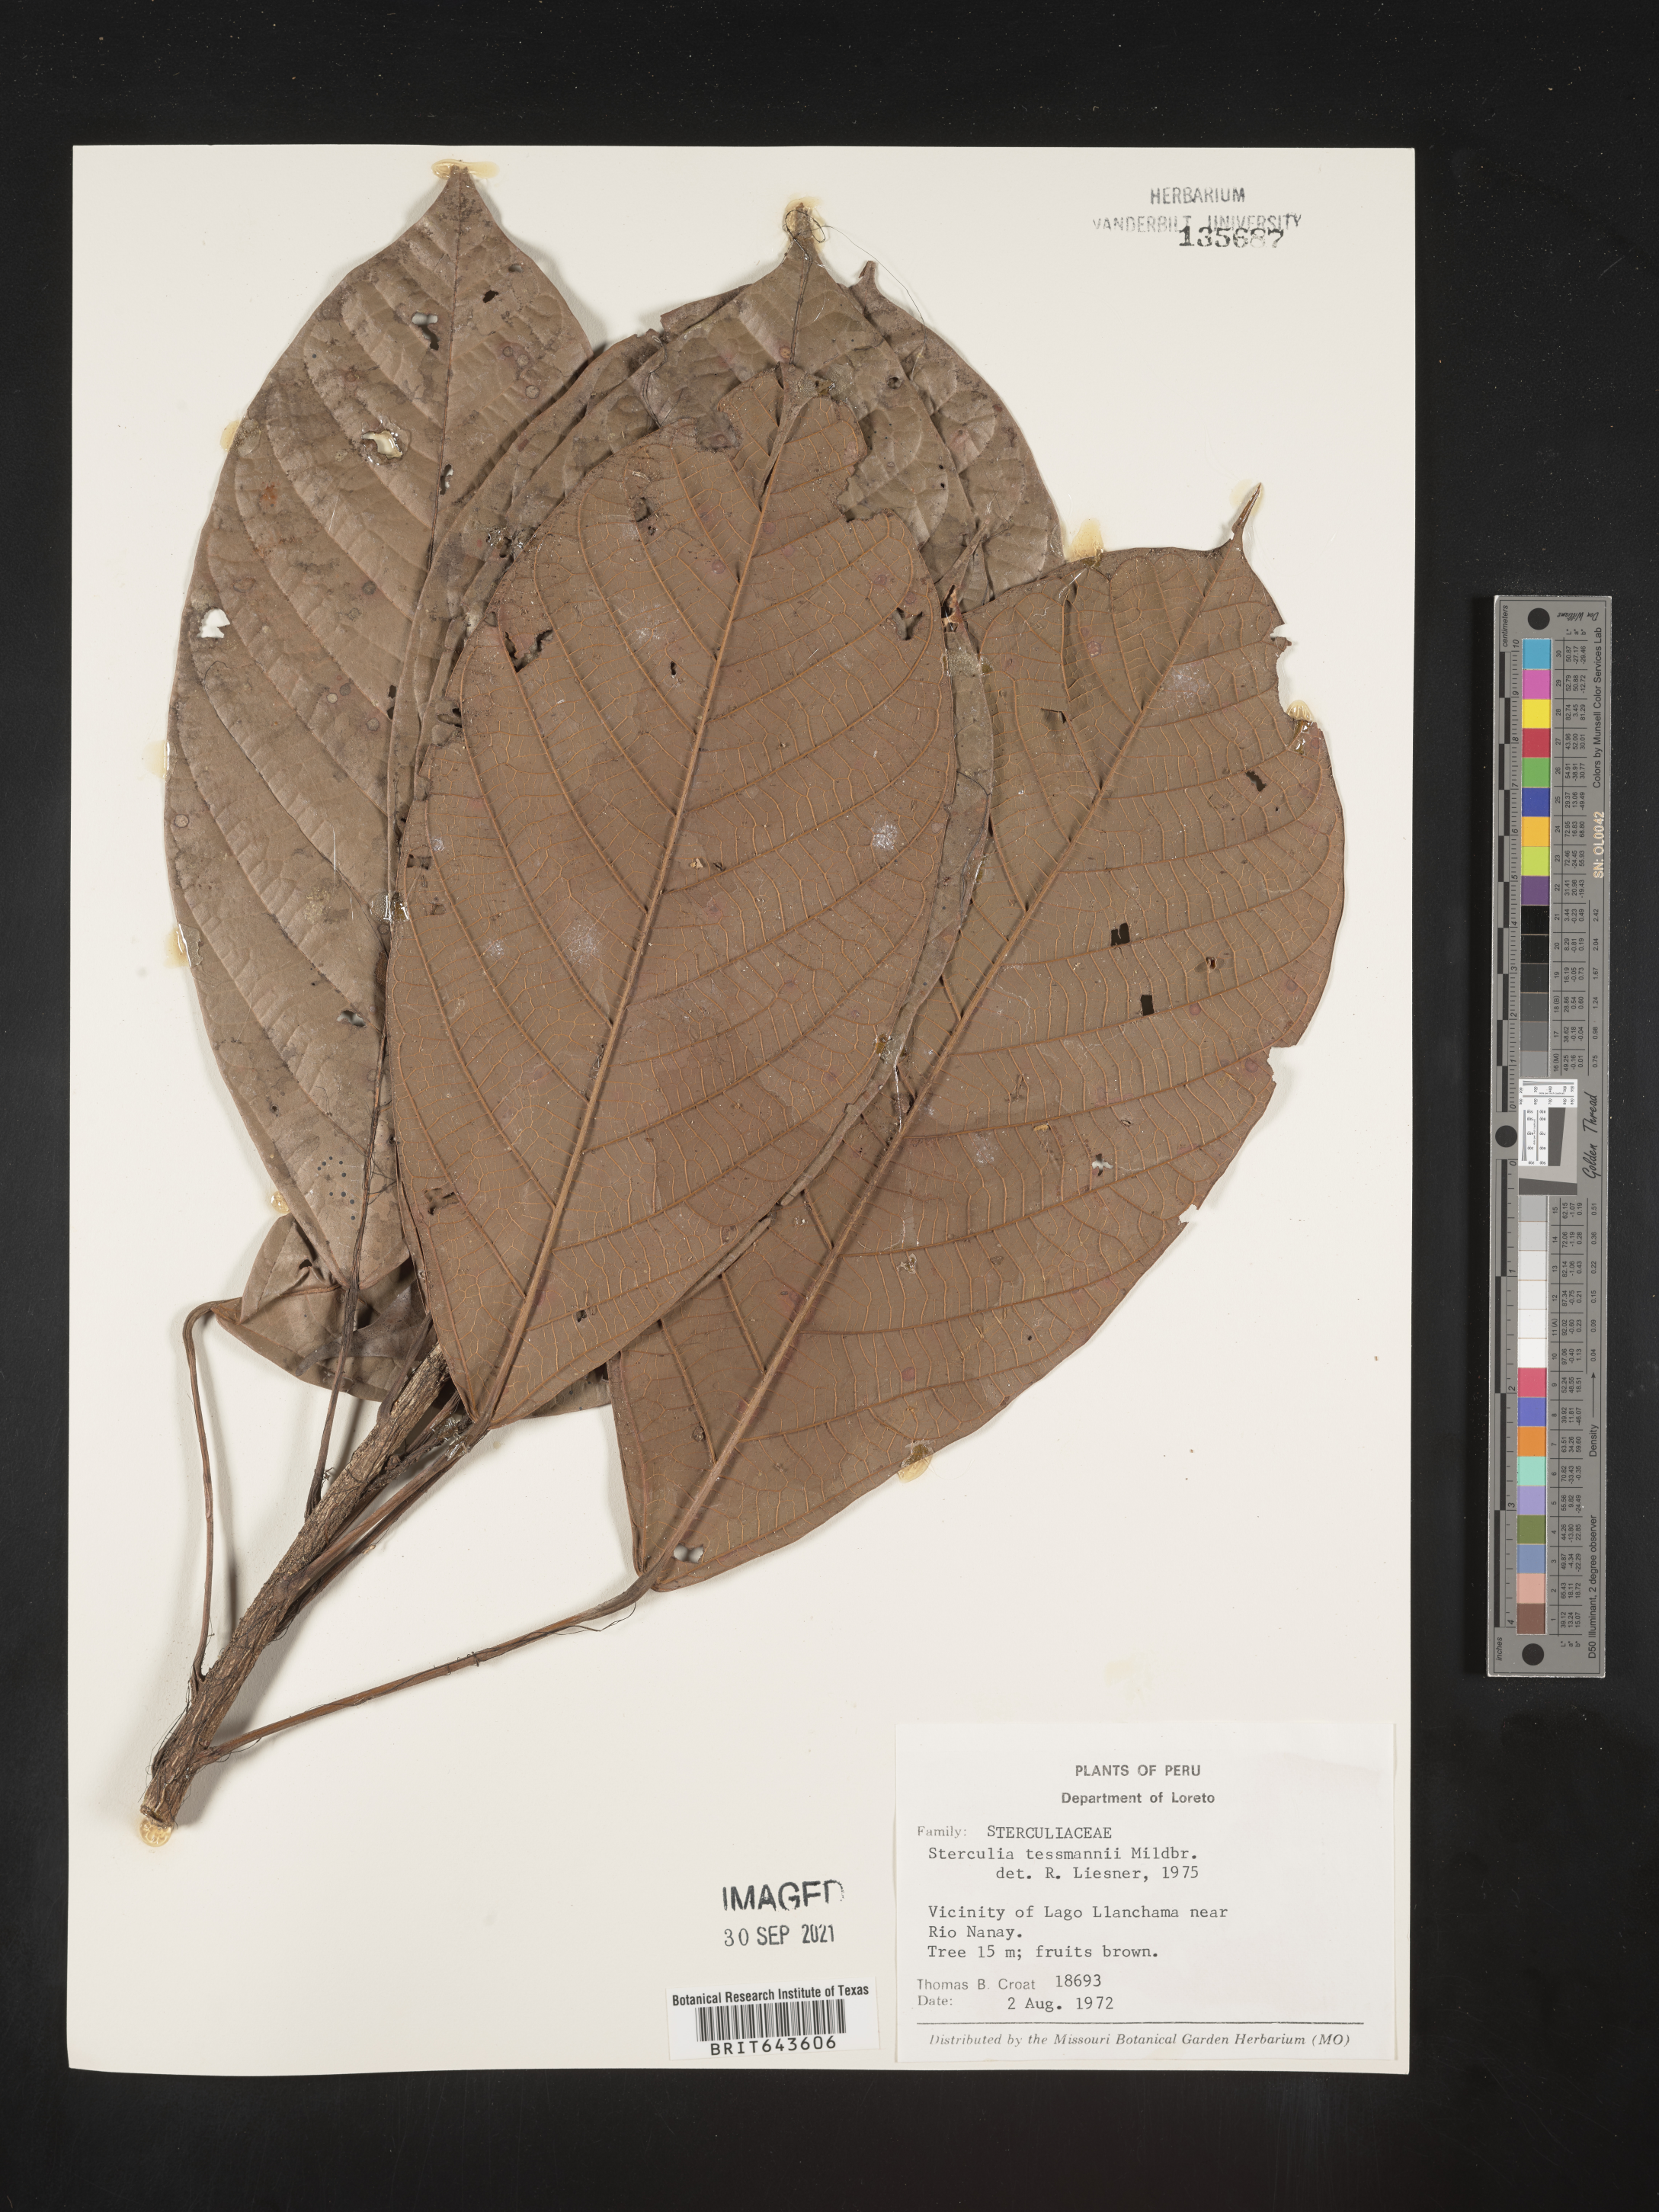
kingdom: Plantae
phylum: Tracheophyta
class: Magnoliopsida
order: Malvales
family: Malvaceae
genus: Sterculia
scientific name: Sterculia
